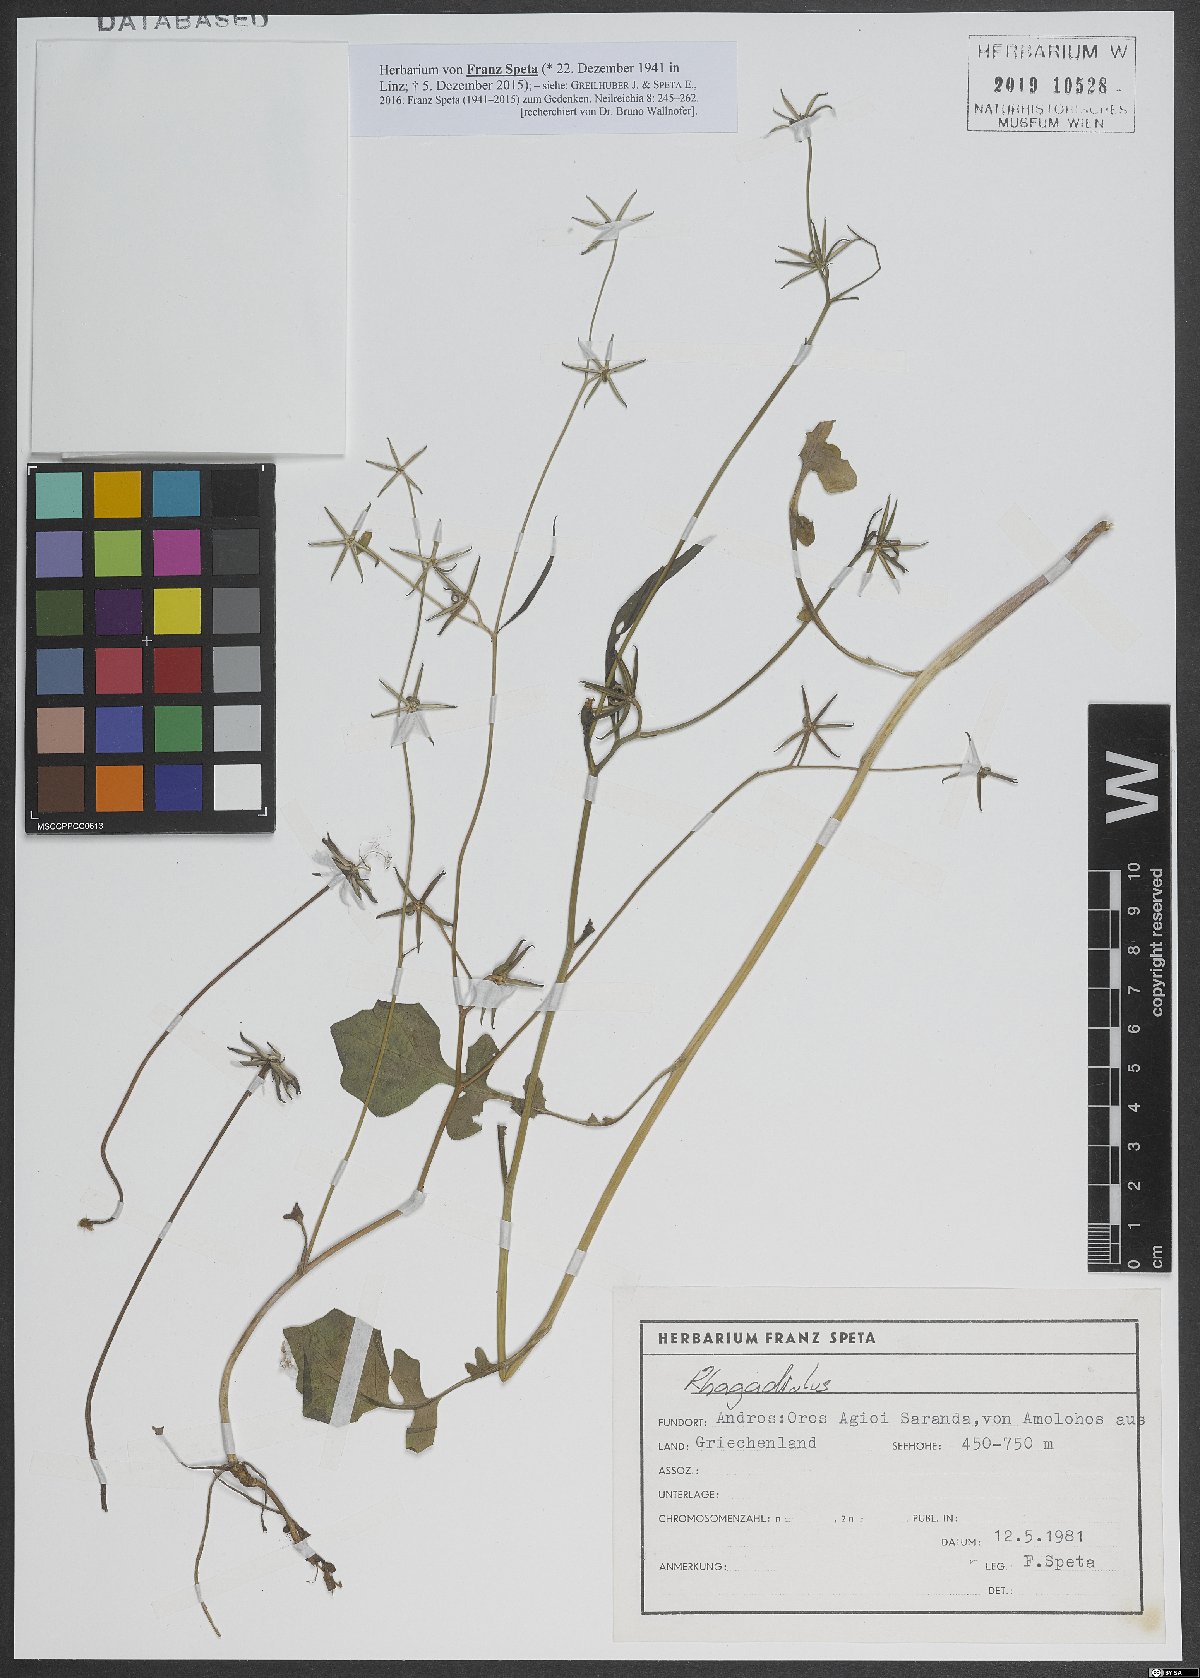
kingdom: Plantae
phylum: Tracheophyta
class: Magnoliopsida
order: Asterales
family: Asteraceae
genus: Rhagadiolus
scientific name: Rhagadiolus
